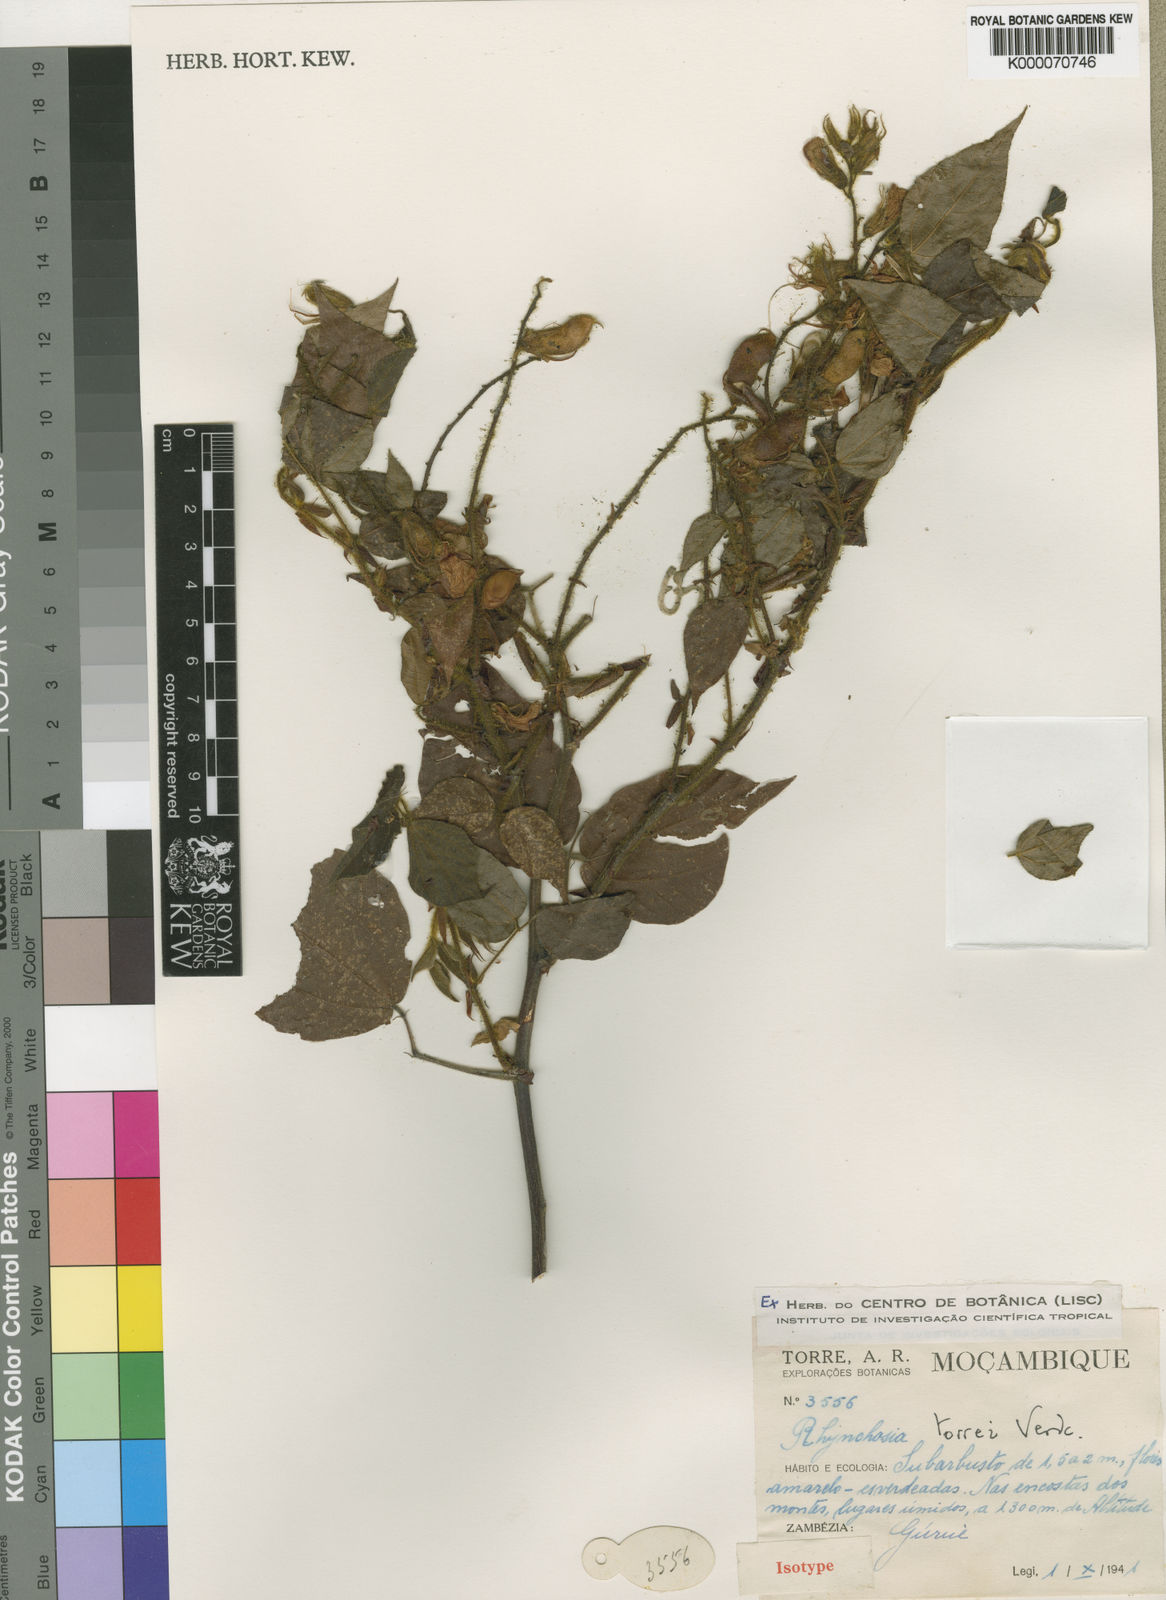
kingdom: Plantae
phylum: Tracheophyta
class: Magnoliopsida
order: Fabales
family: Fabaceae
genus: Rhynchosia
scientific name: Rhynchosia torrei
